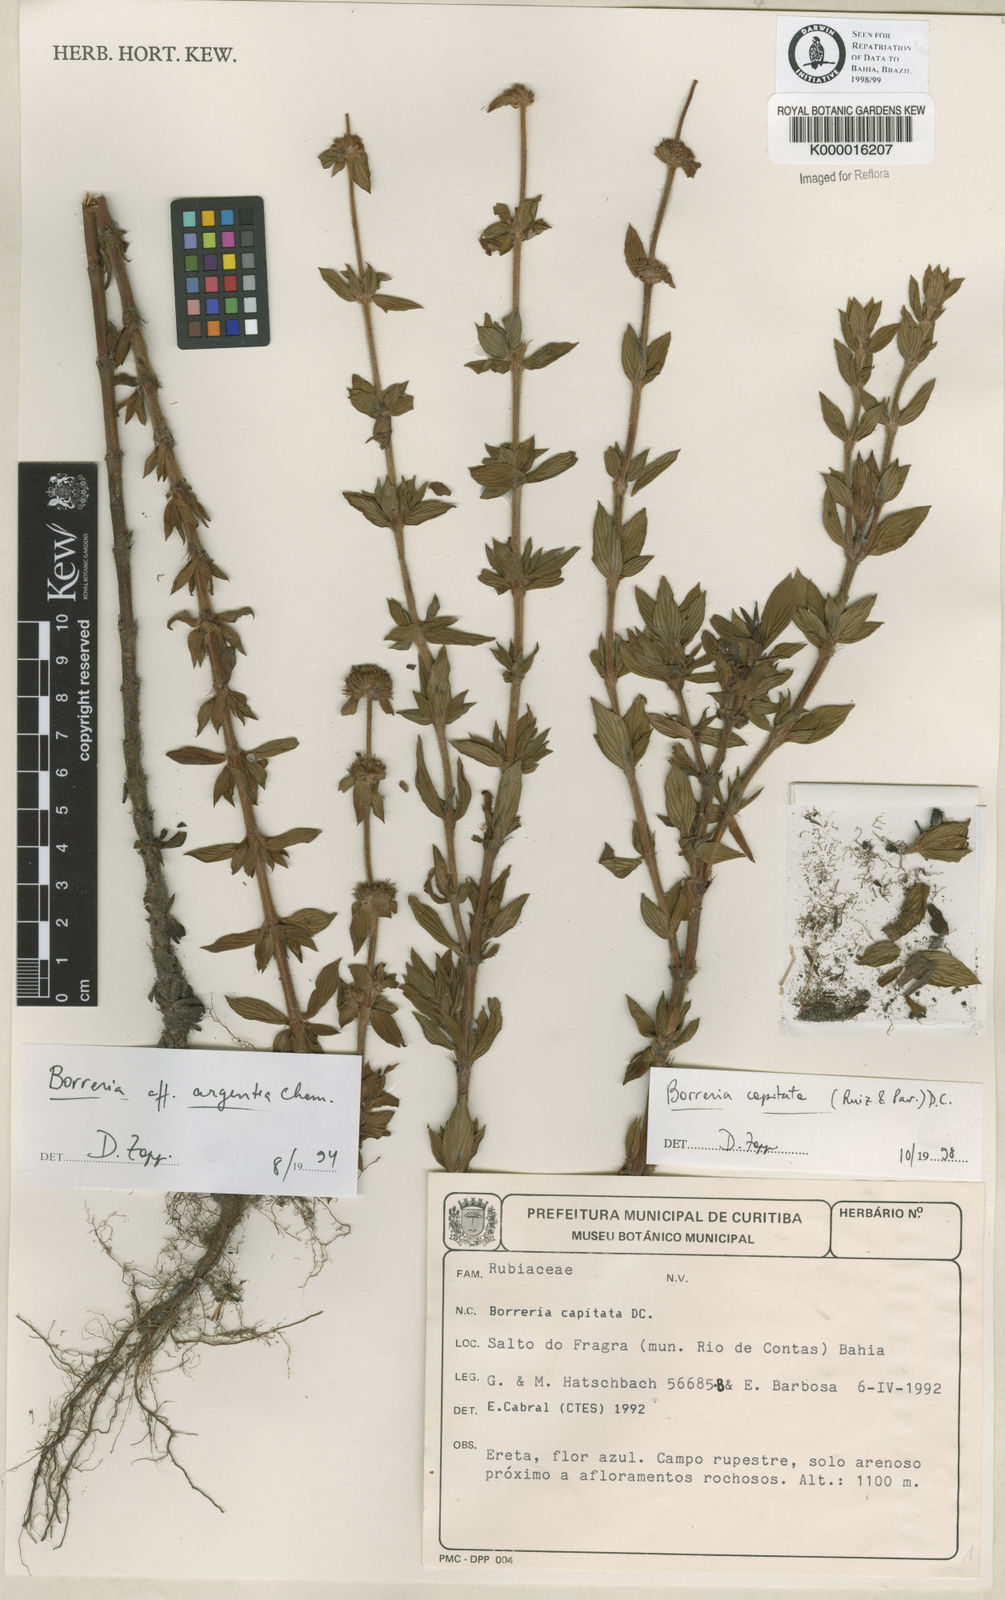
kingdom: Plantae
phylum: Tracheophyta
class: Magnoliopsida
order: Gentianales
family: Rubiaceae
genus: Spermacoce
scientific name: Spermacoce capitata
